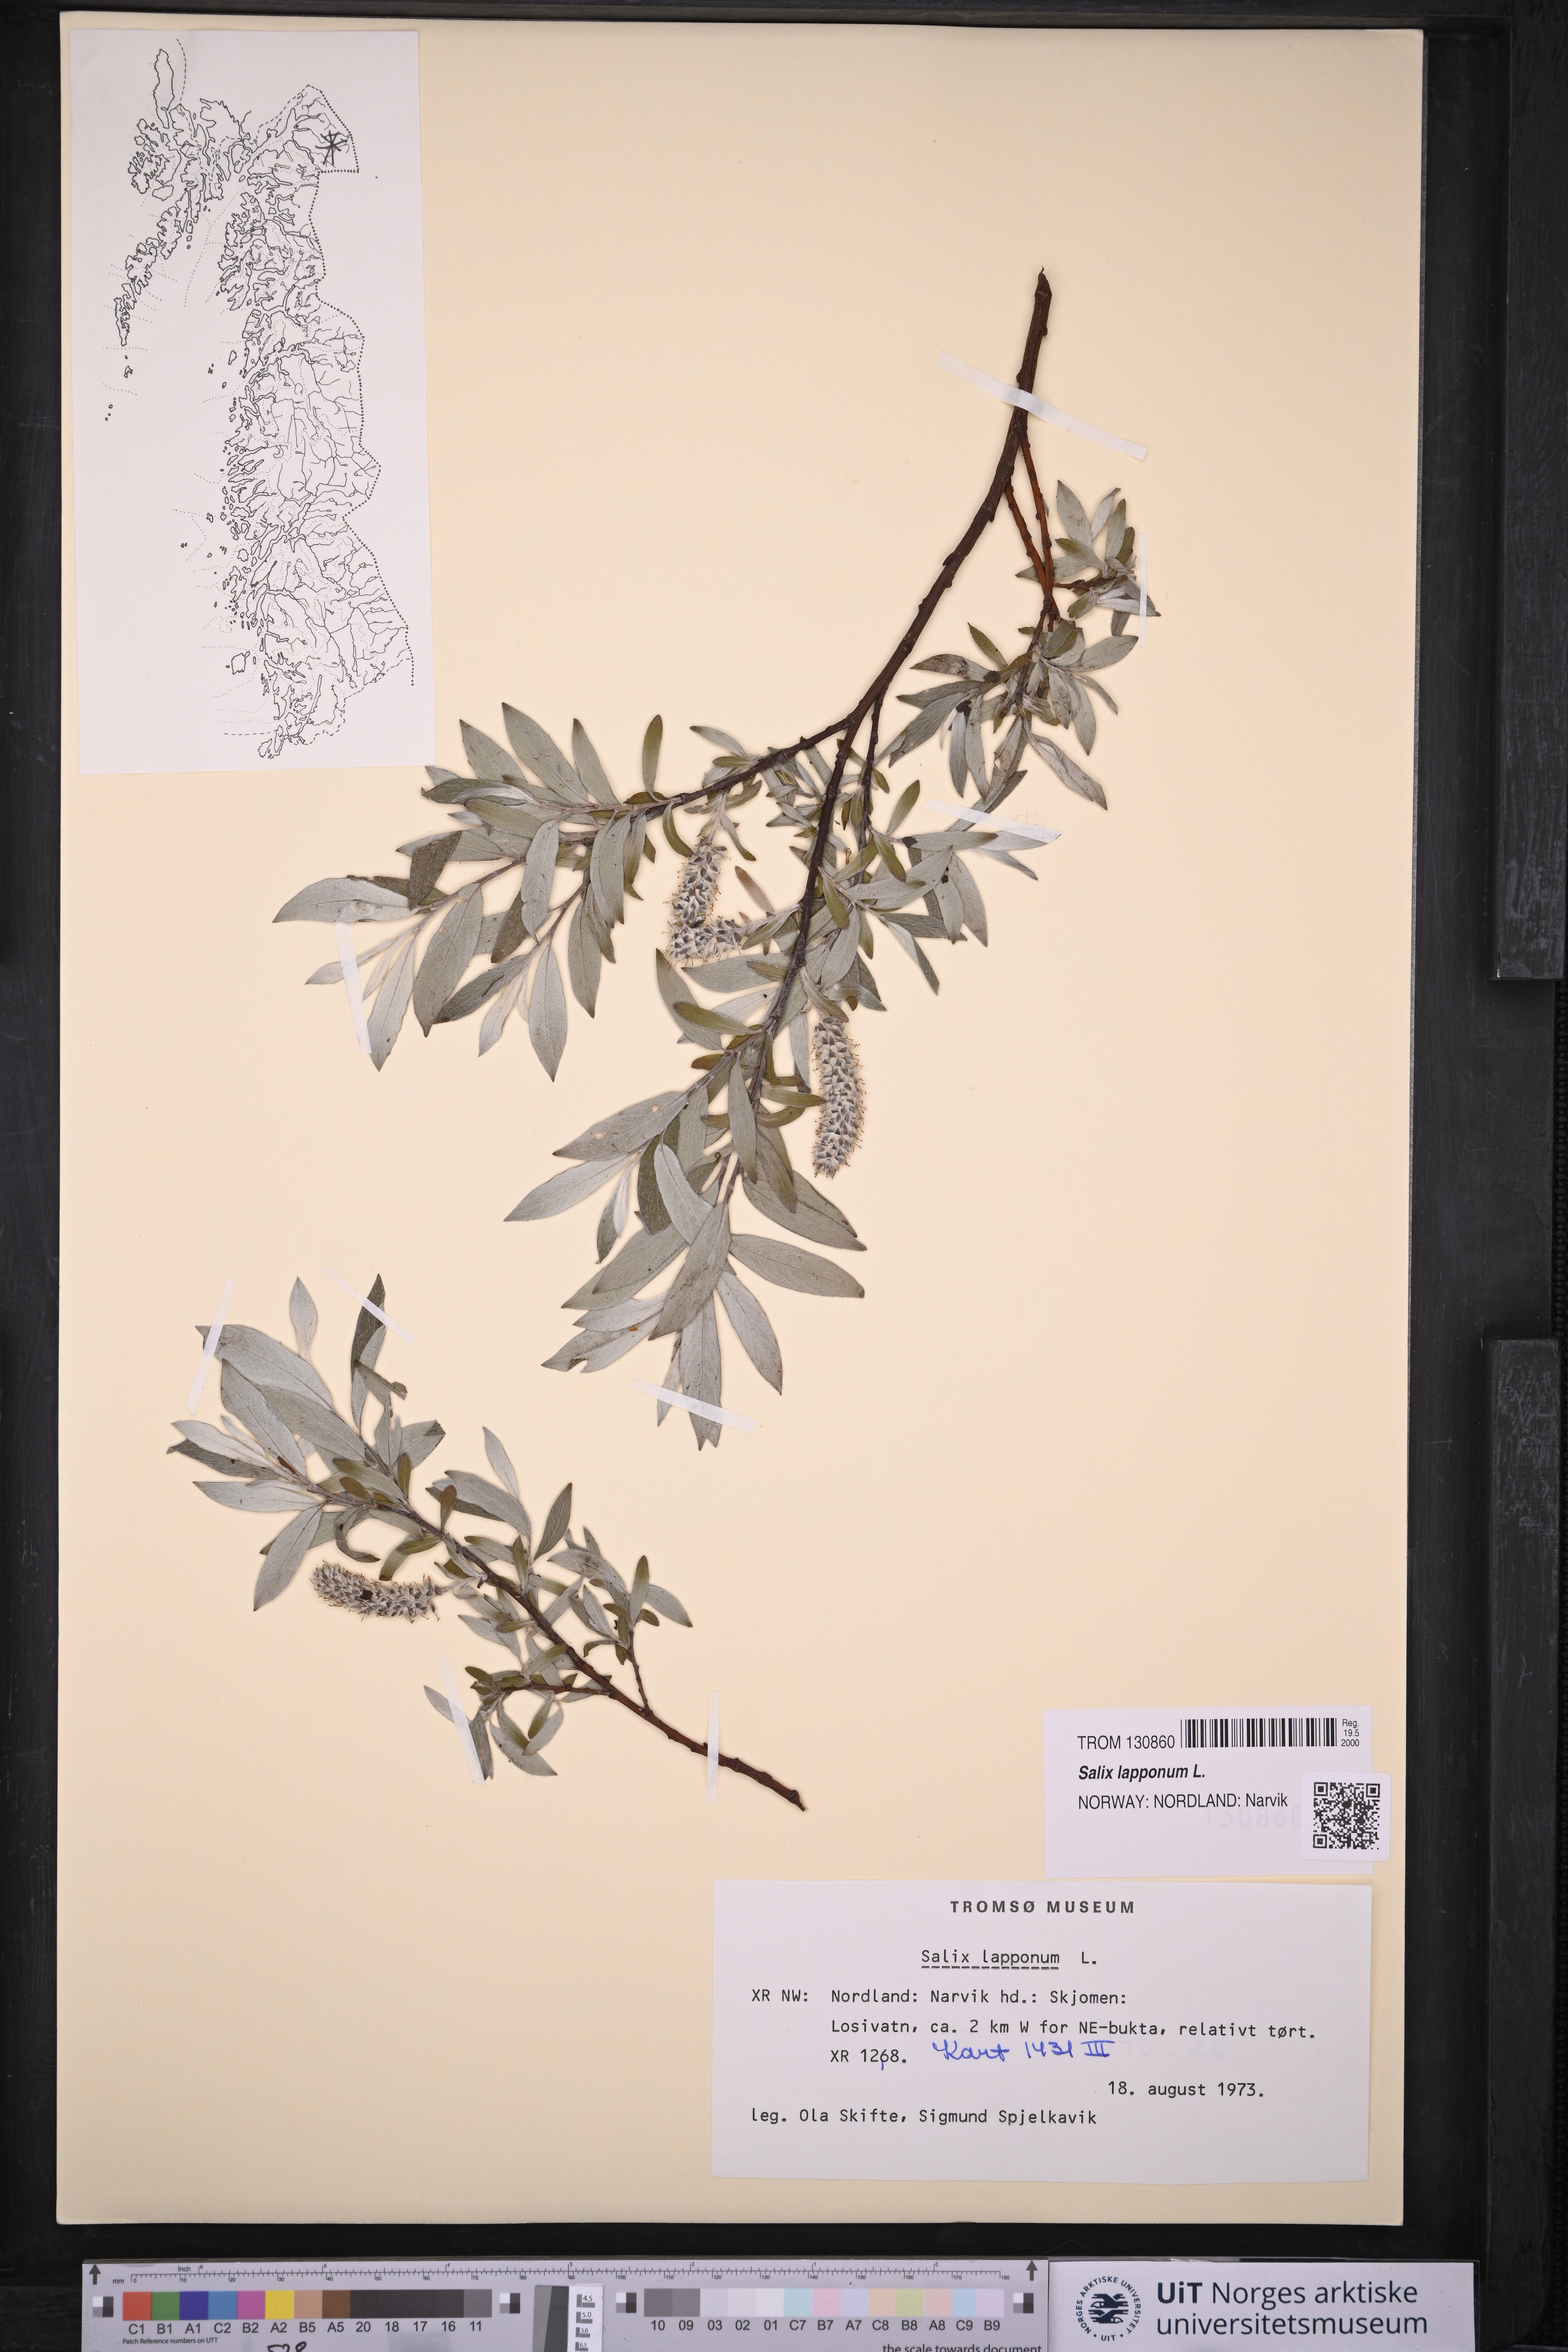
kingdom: Plantae
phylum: Tracheophyta
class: Magnoliopsida
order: Malpighiales
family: Salicaceae
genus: Salix
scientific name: Salix lapponum
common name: Downy willow
